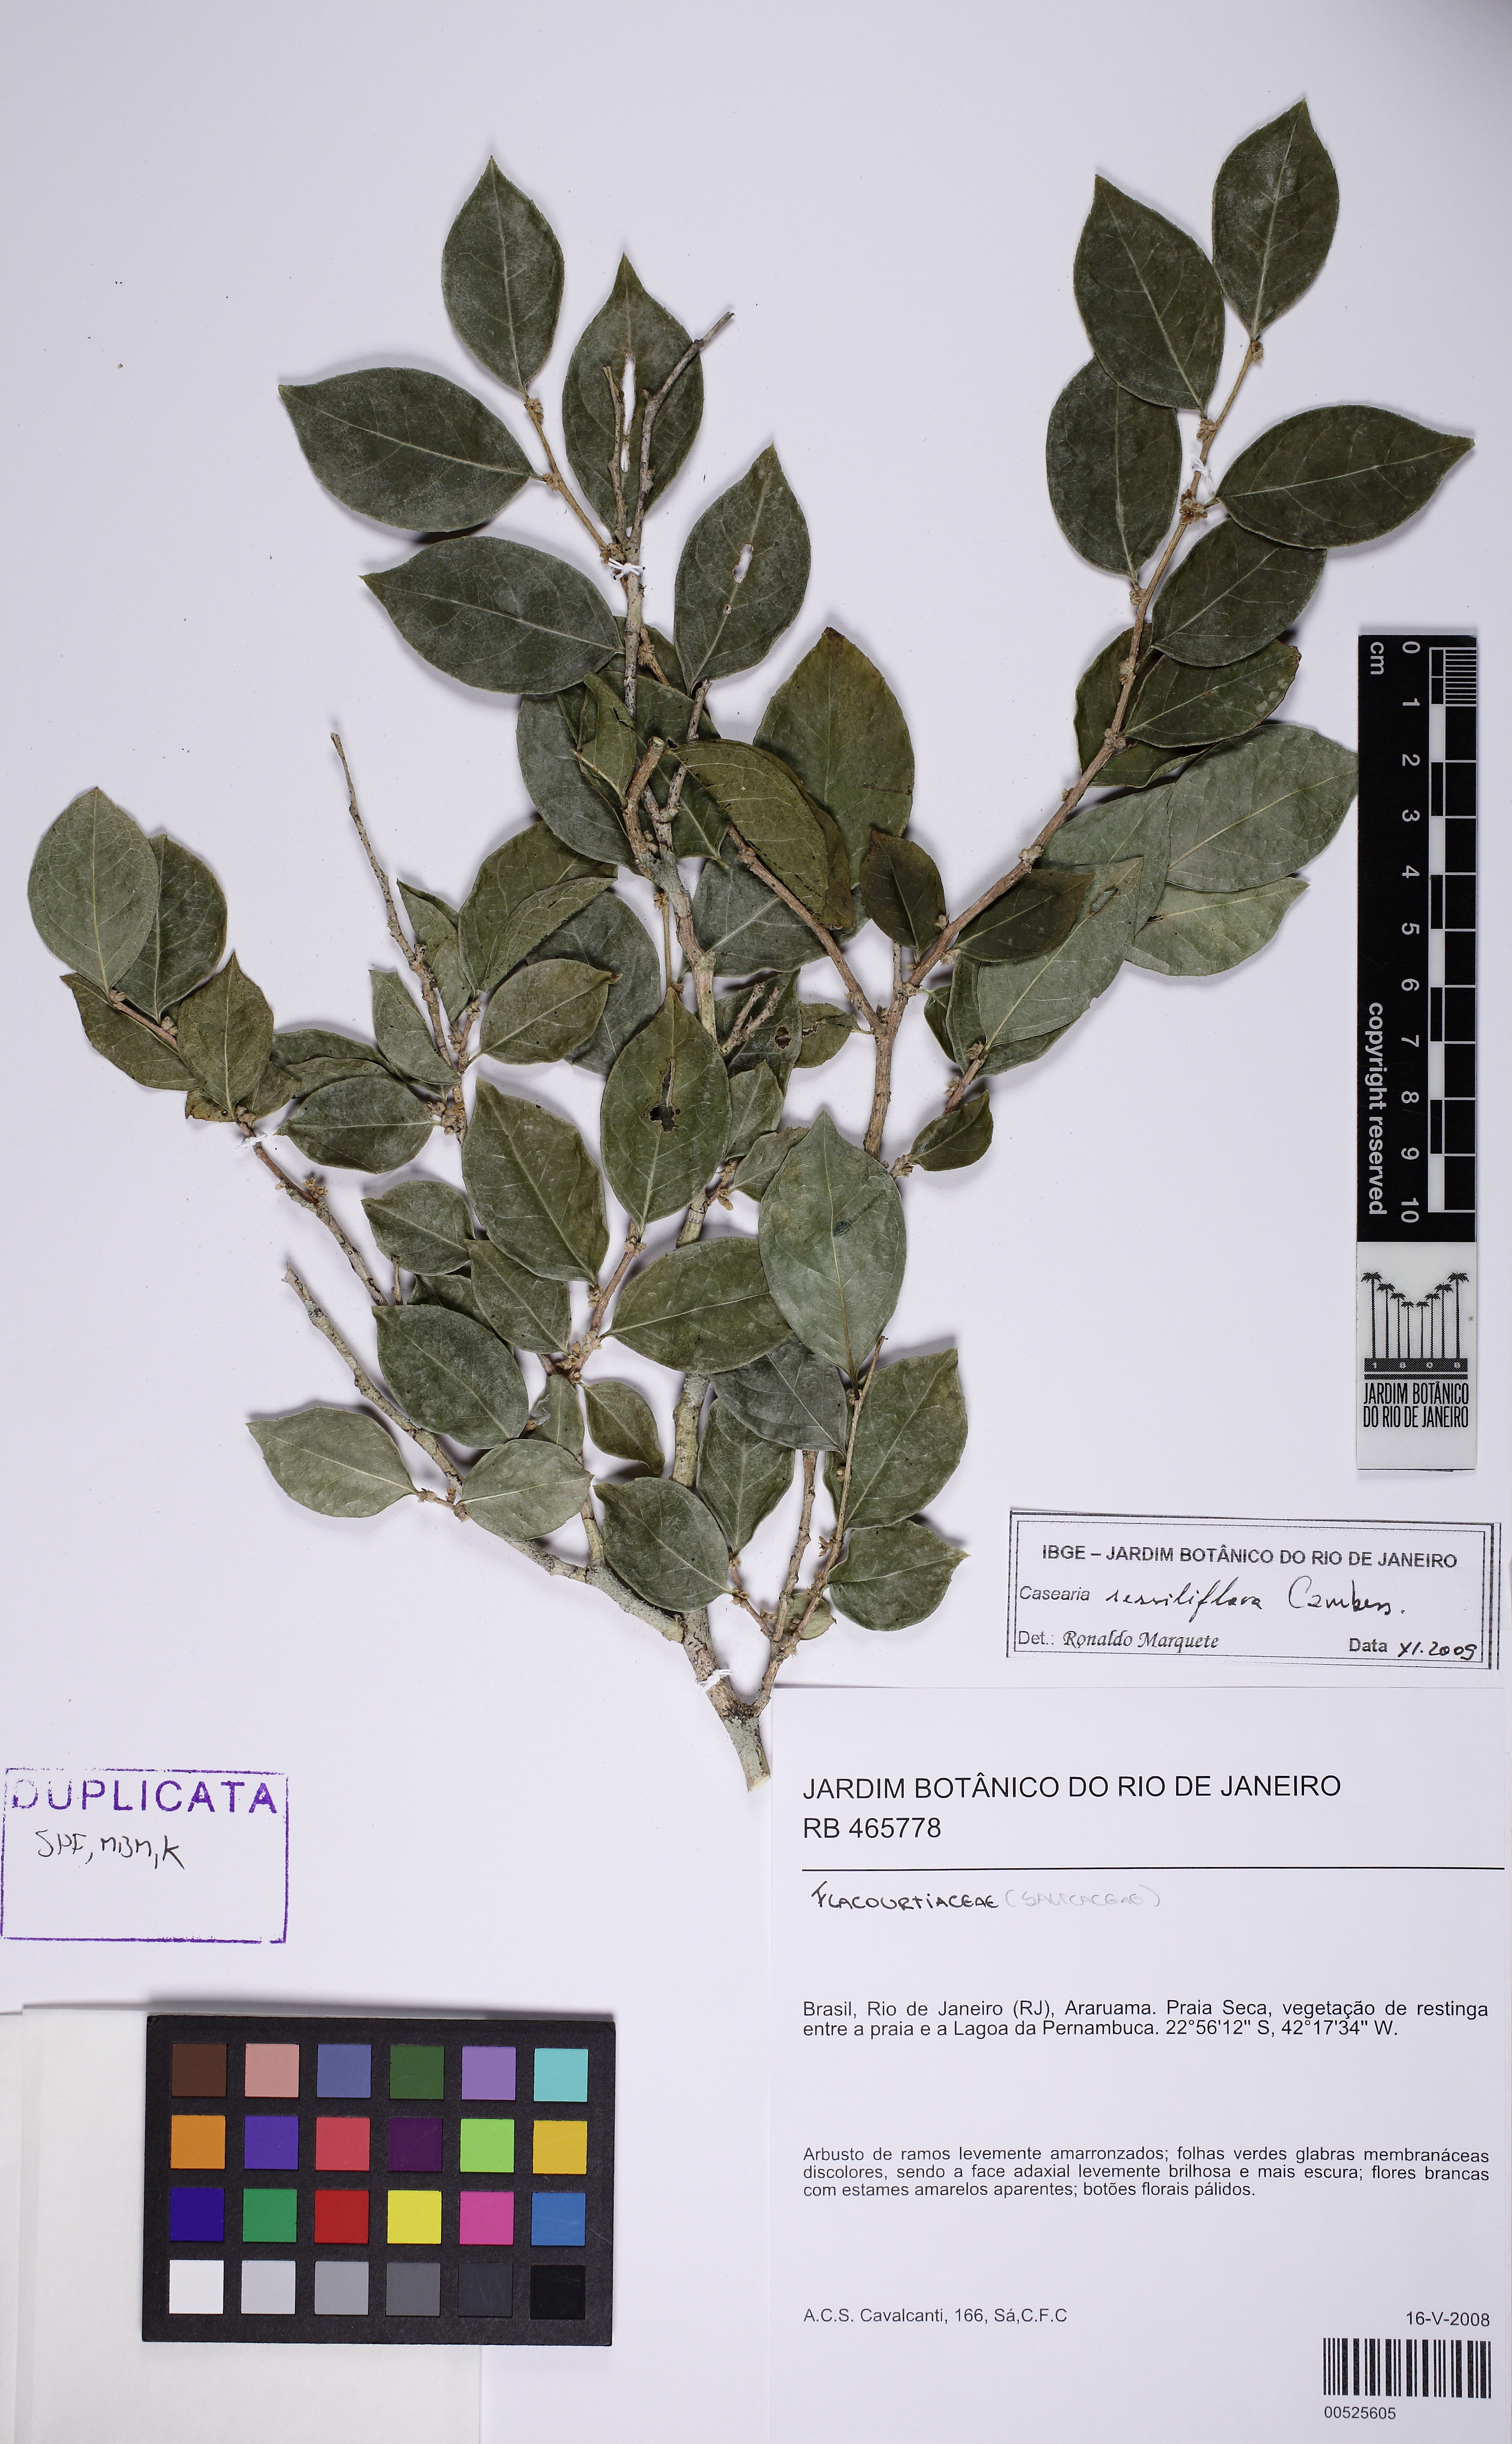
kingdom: Plantae
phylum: Tracheophyta
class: Magnoliopsida
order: Malpighiales
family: Salicaceae
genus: Casearia
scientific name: Casearia sessiliflora
